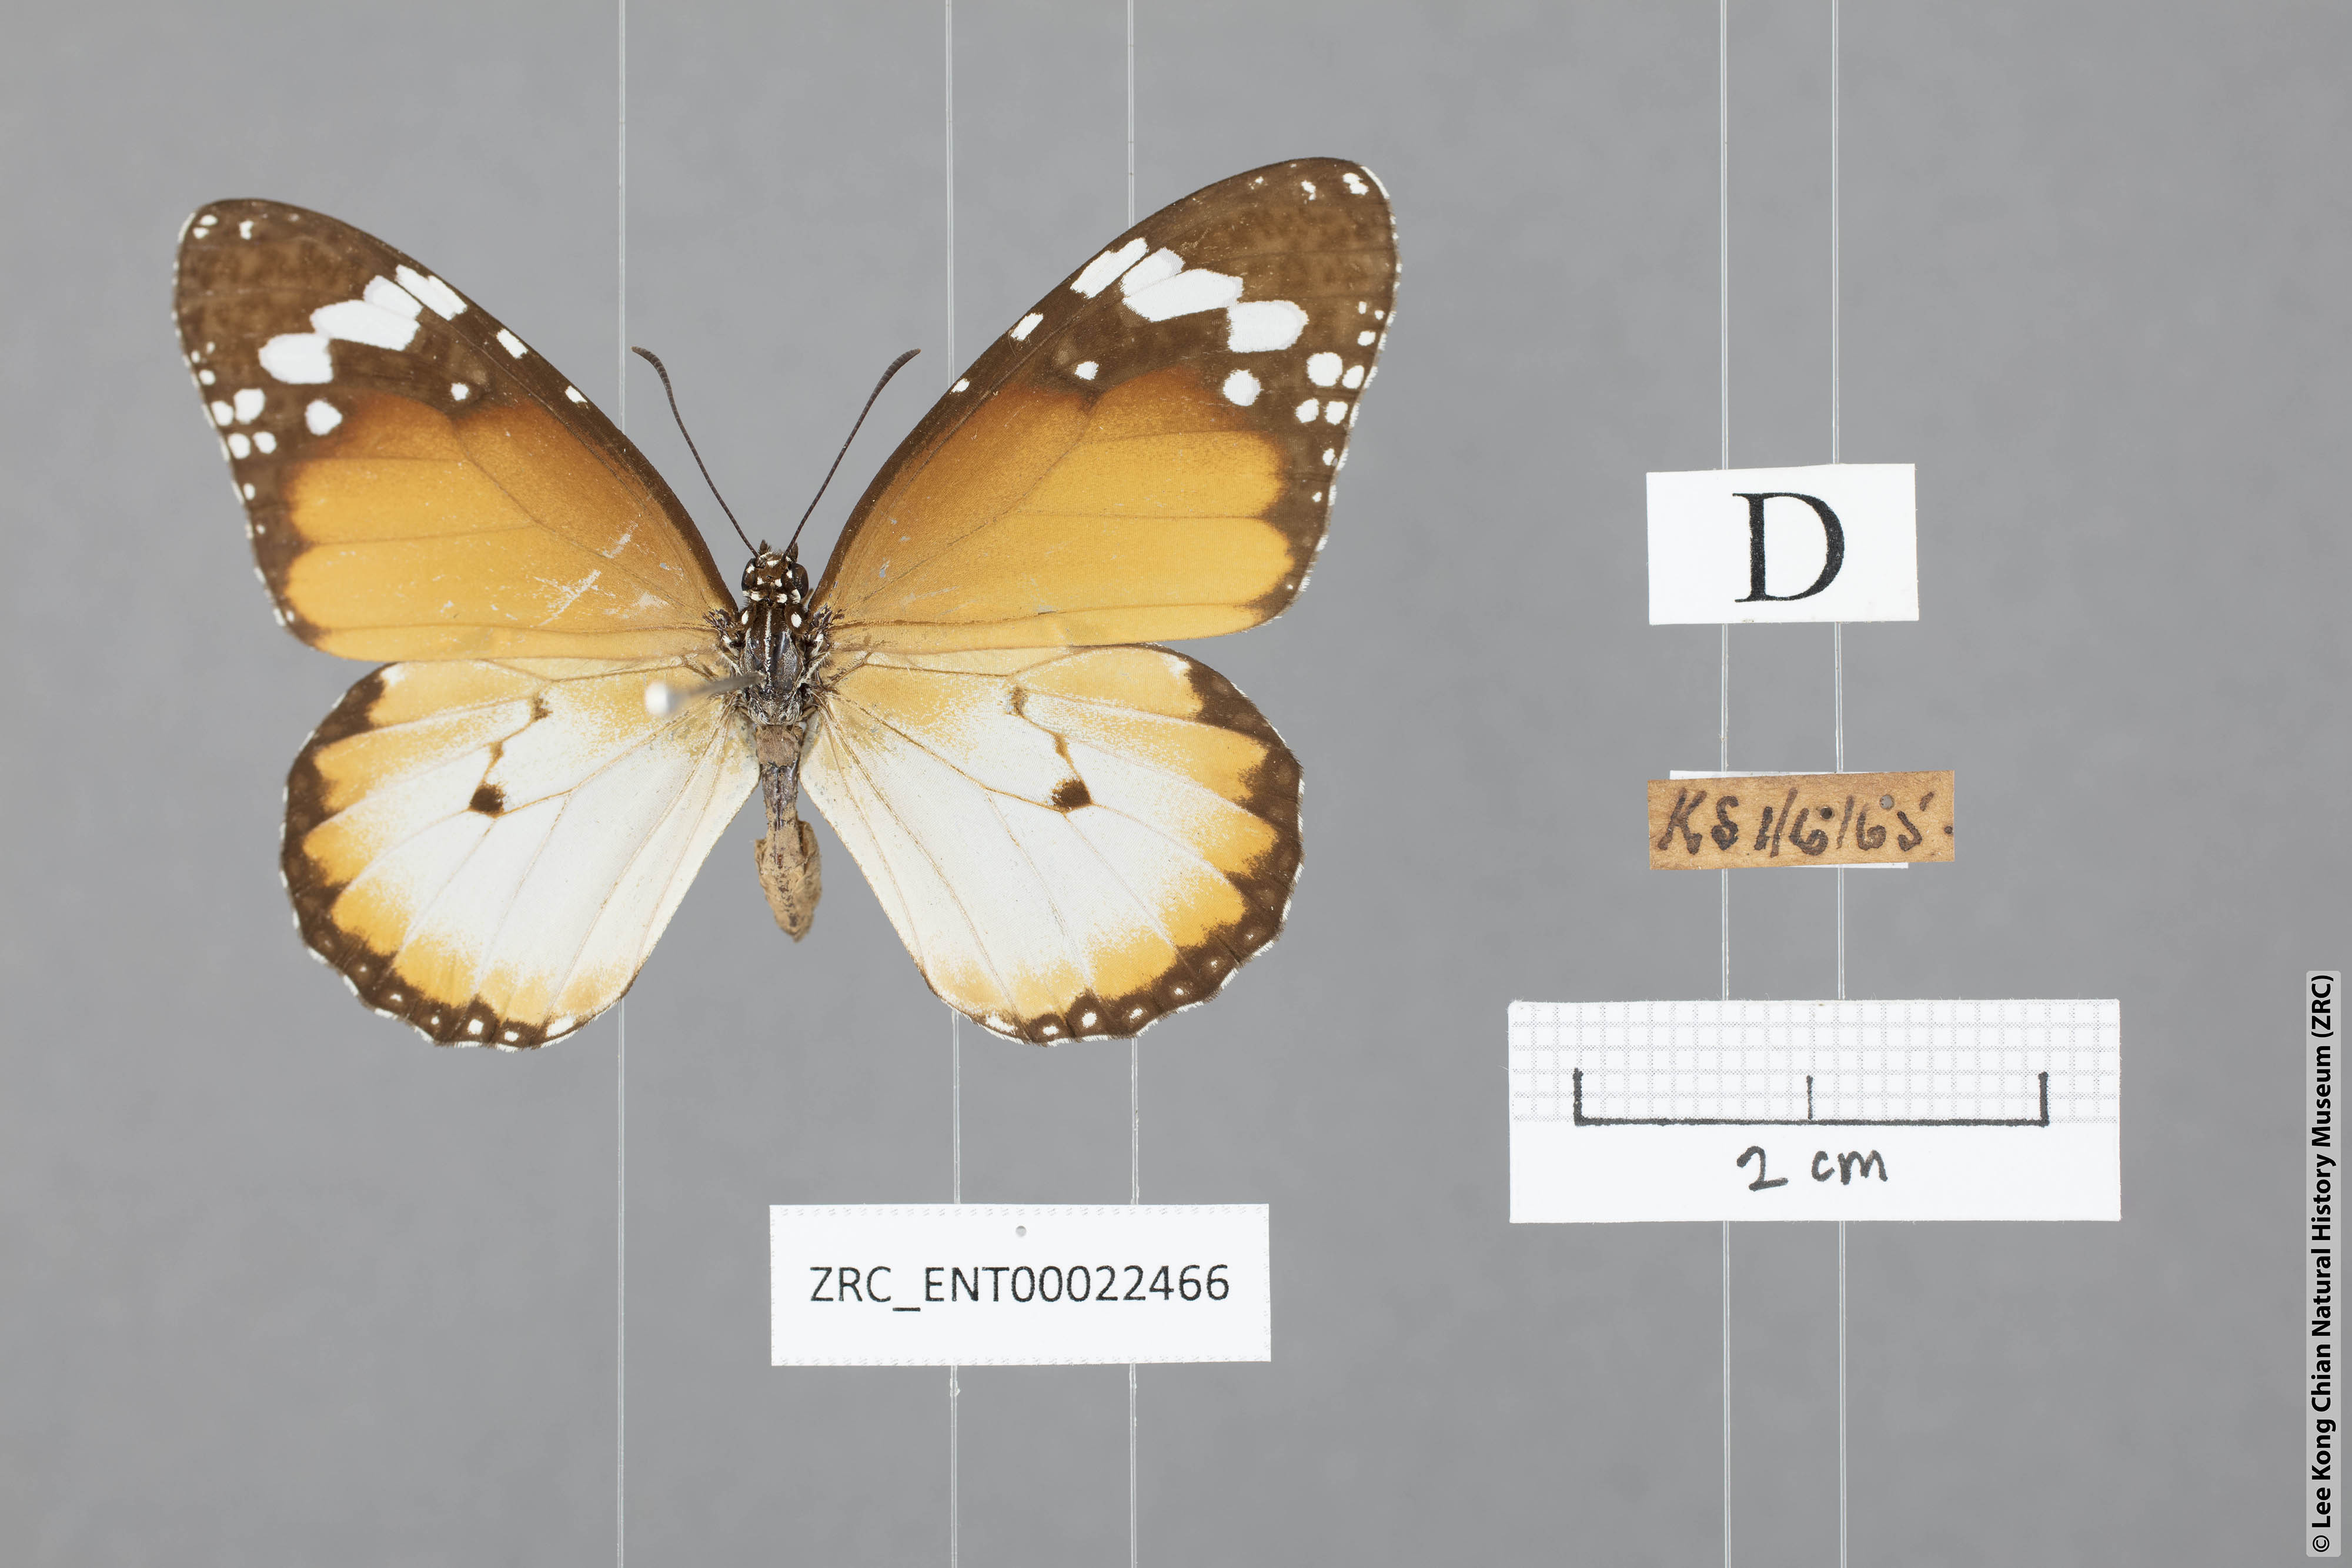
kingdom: Animalia
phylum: Arthropoda
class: Insecta
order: Lepidoptera
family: Nymphalidae
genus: Danaus
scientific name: Danaus chrysippus
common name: Plain tiger
